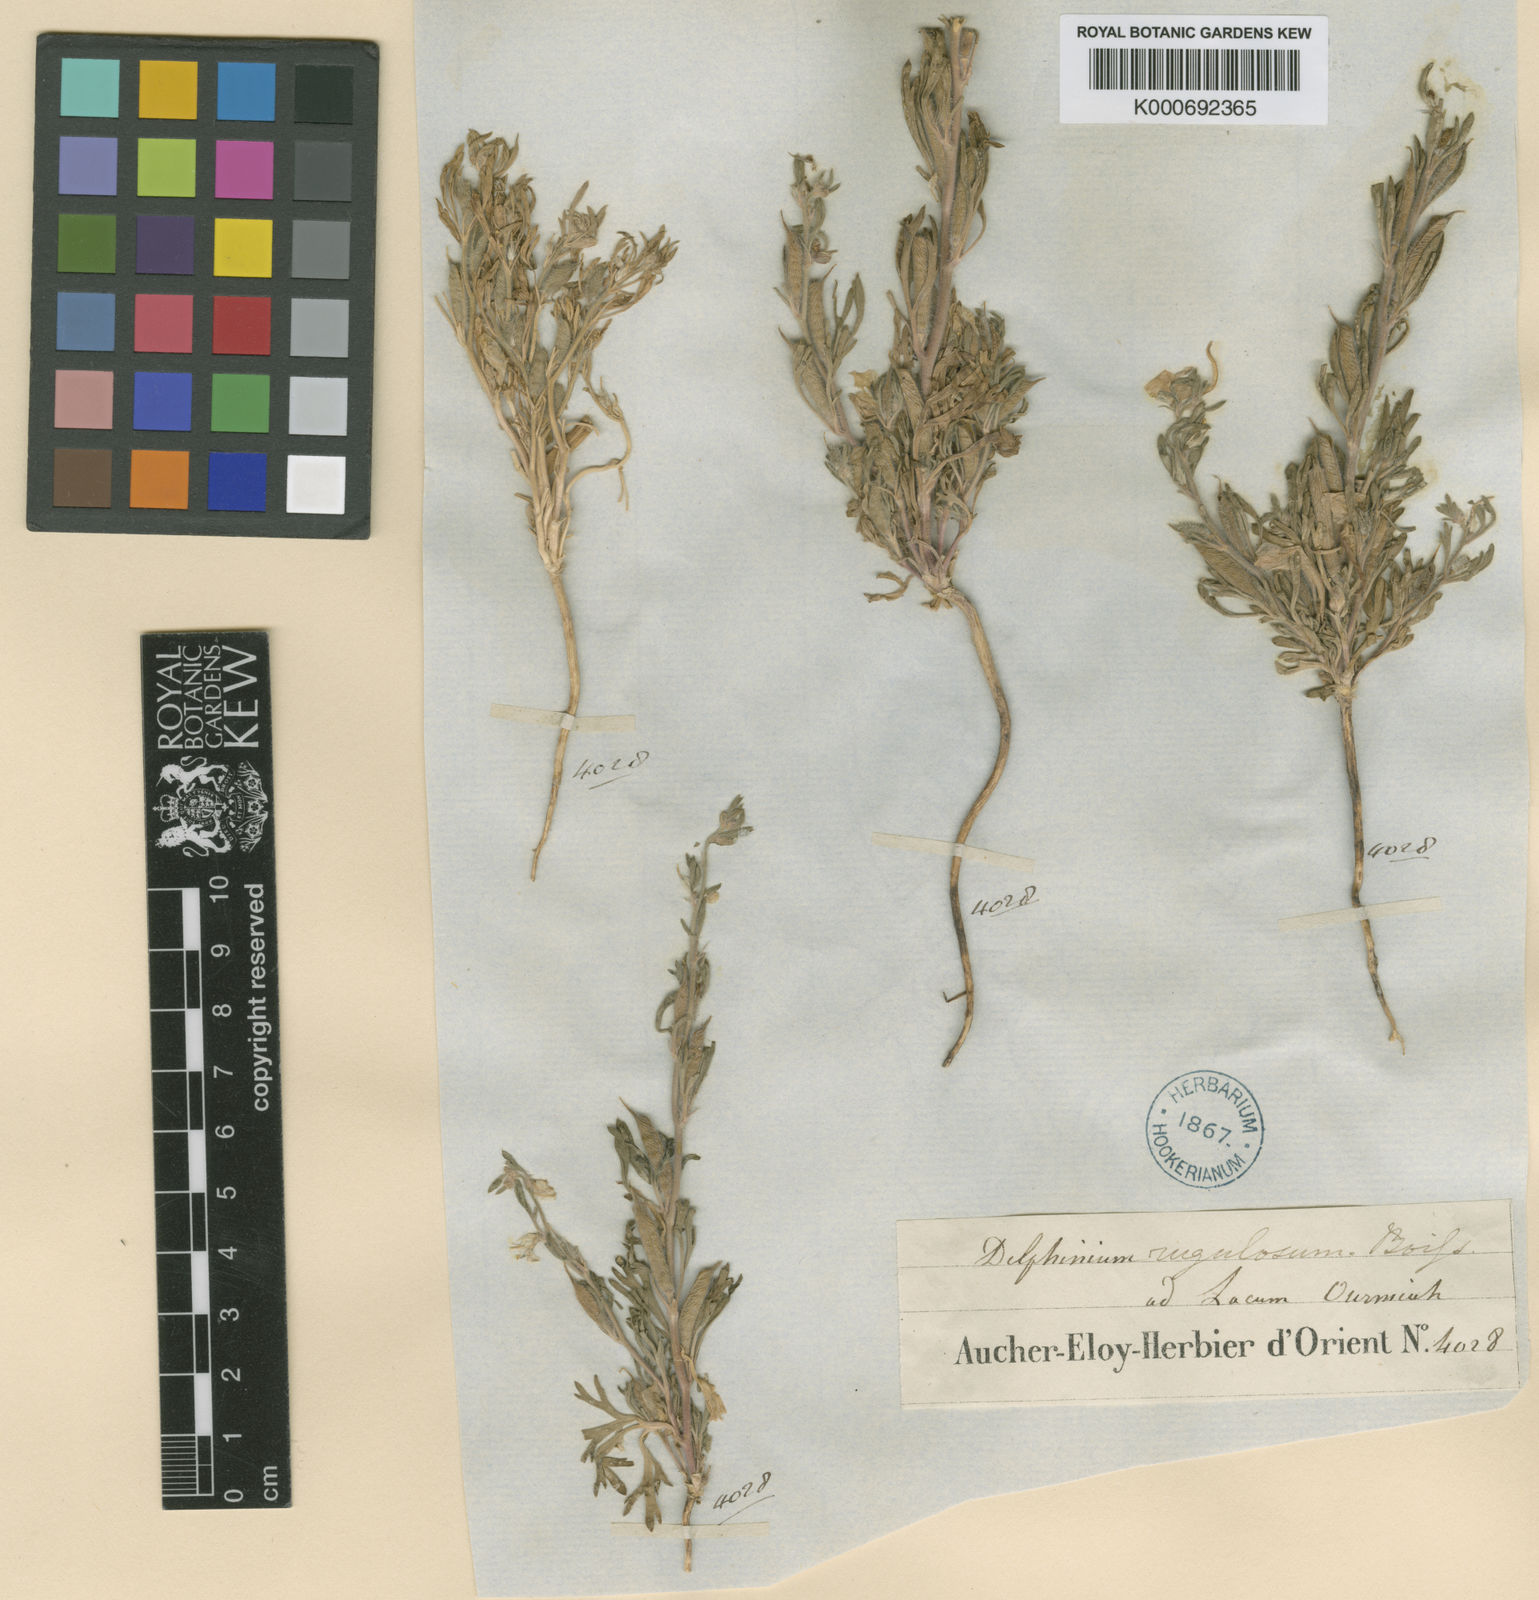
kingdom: Plantae
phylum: Tracheophyta
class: Magnoliopsida
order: Ranunculales
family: Ranunculaceae
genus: Delphinium
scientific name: Delphinium rugulosum
